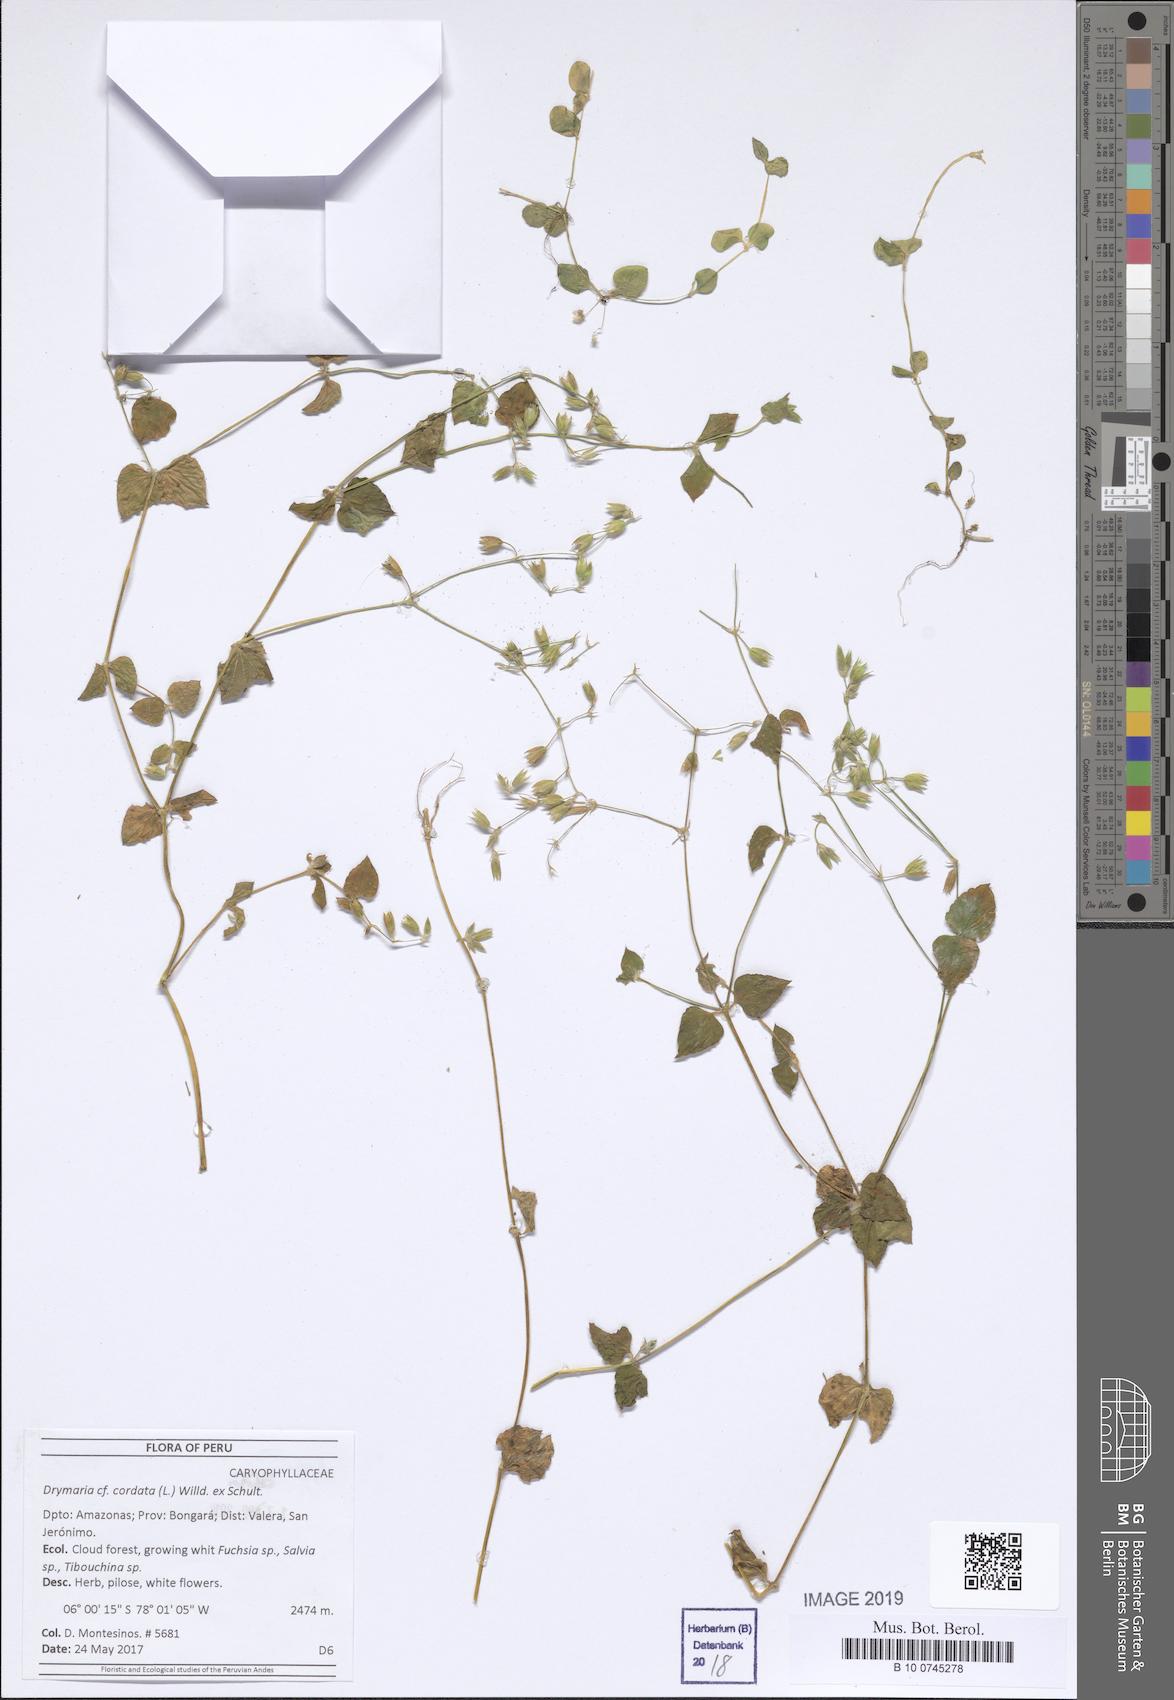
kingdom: Plantae
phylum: Tracheophyta
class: Magnoliopsida
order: Caryophyllales
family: Caryophyllaceae
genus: Drymaria
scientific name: Drymaria cordata
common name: Whitesnow
